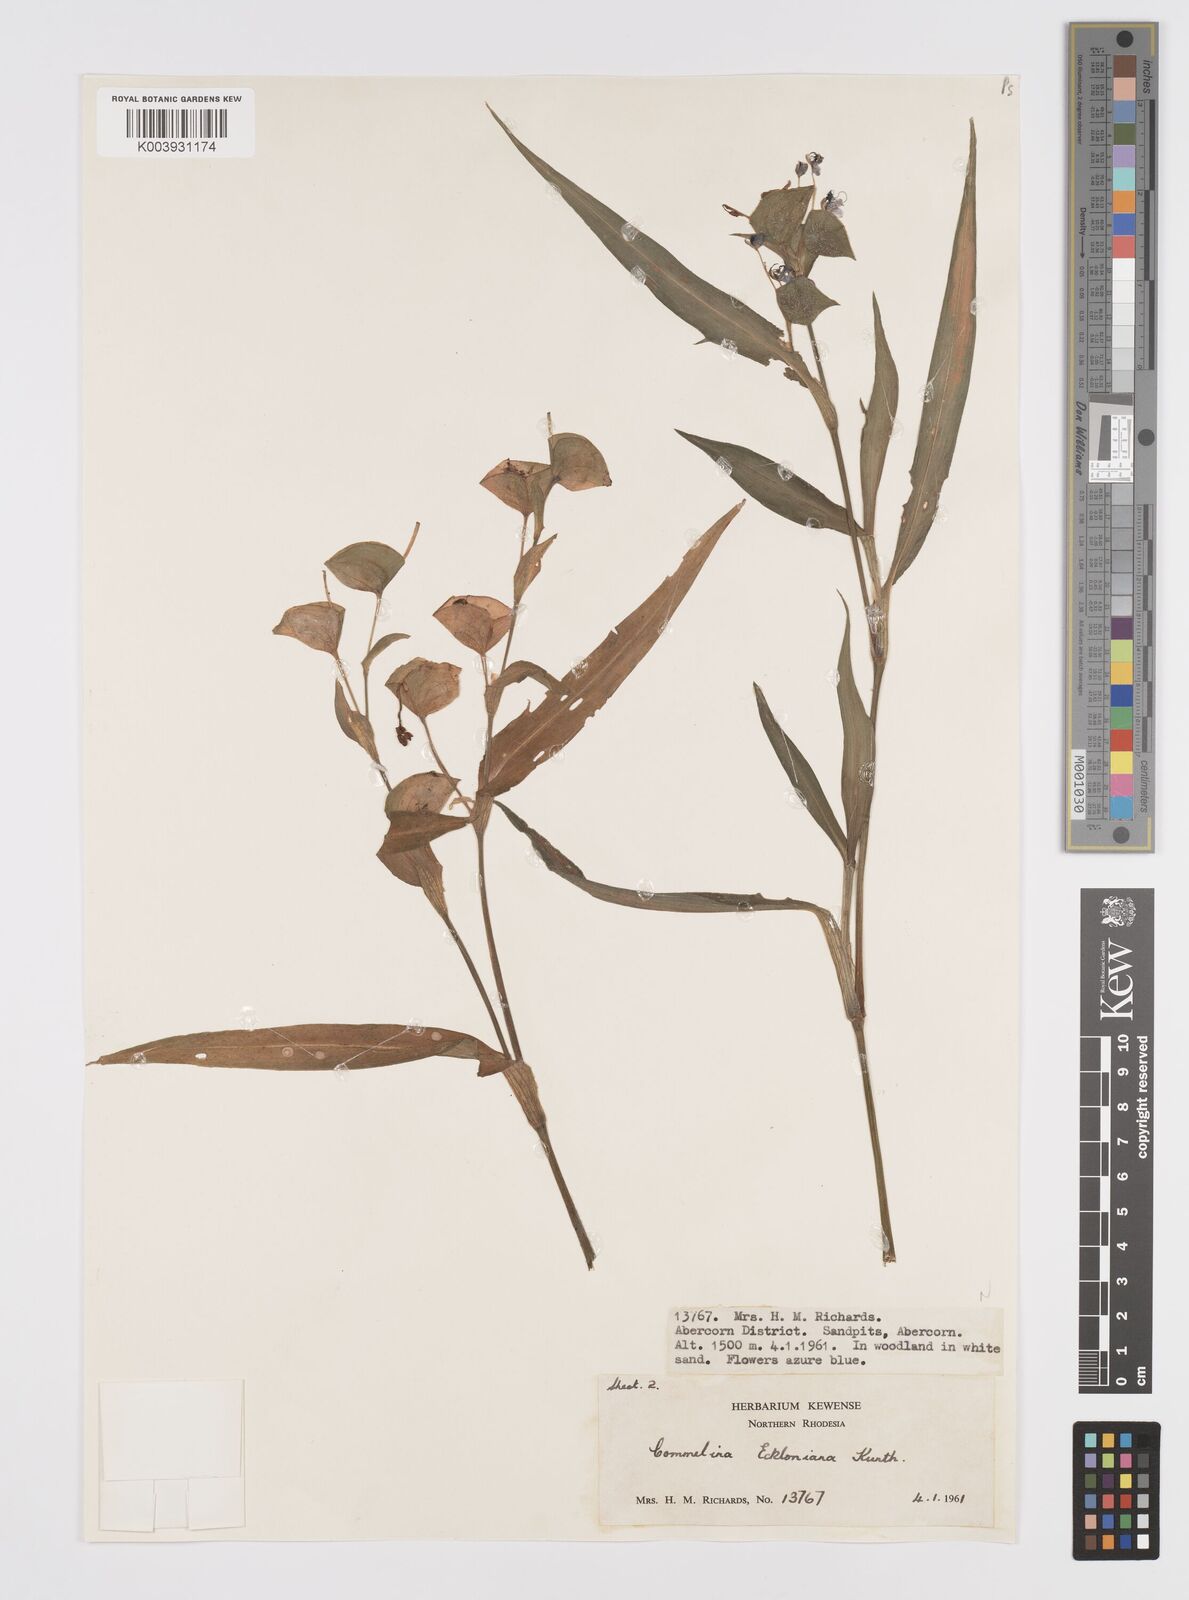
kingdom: Plantae
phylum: Tracheophyta
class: Liliopsida
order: Commelinales
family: Commelinaceae
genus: Commelina
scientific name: Commelina eckloniana
